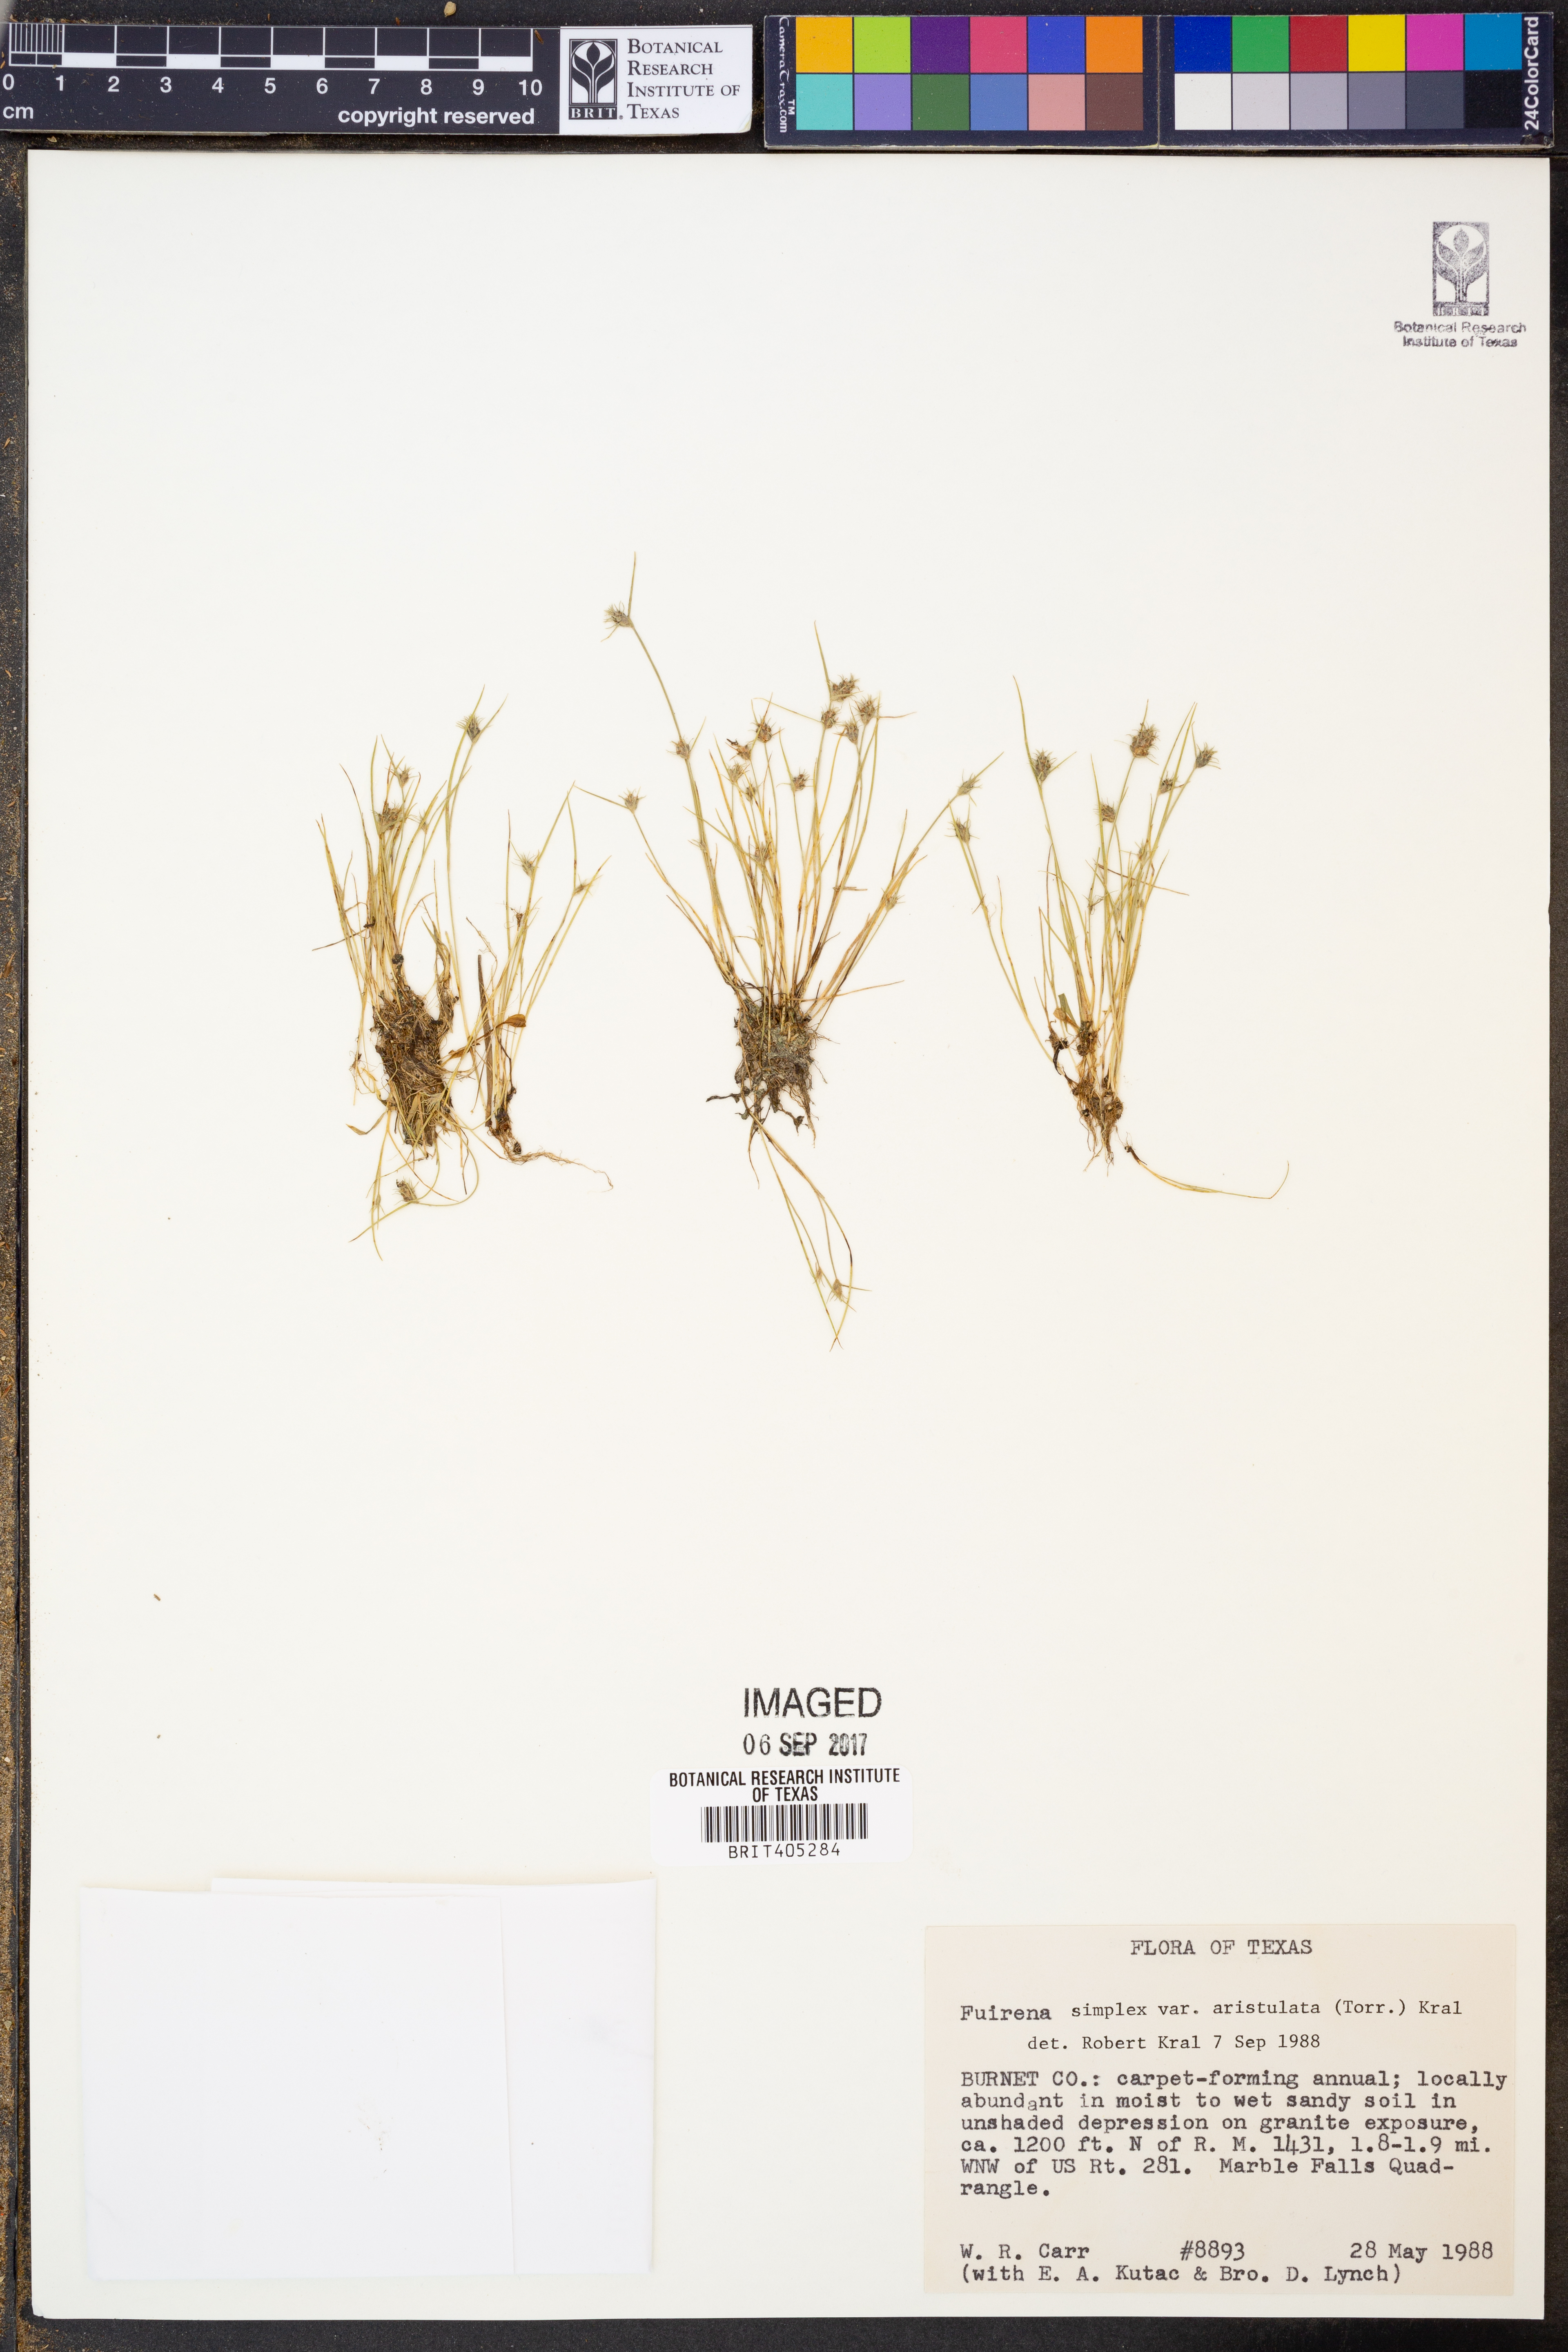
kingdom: Plantae
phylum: Tracheophyta
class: Liliopsida
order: Poales
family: Cyperaceae
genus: Fuirena
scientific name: Fuirena simplex
